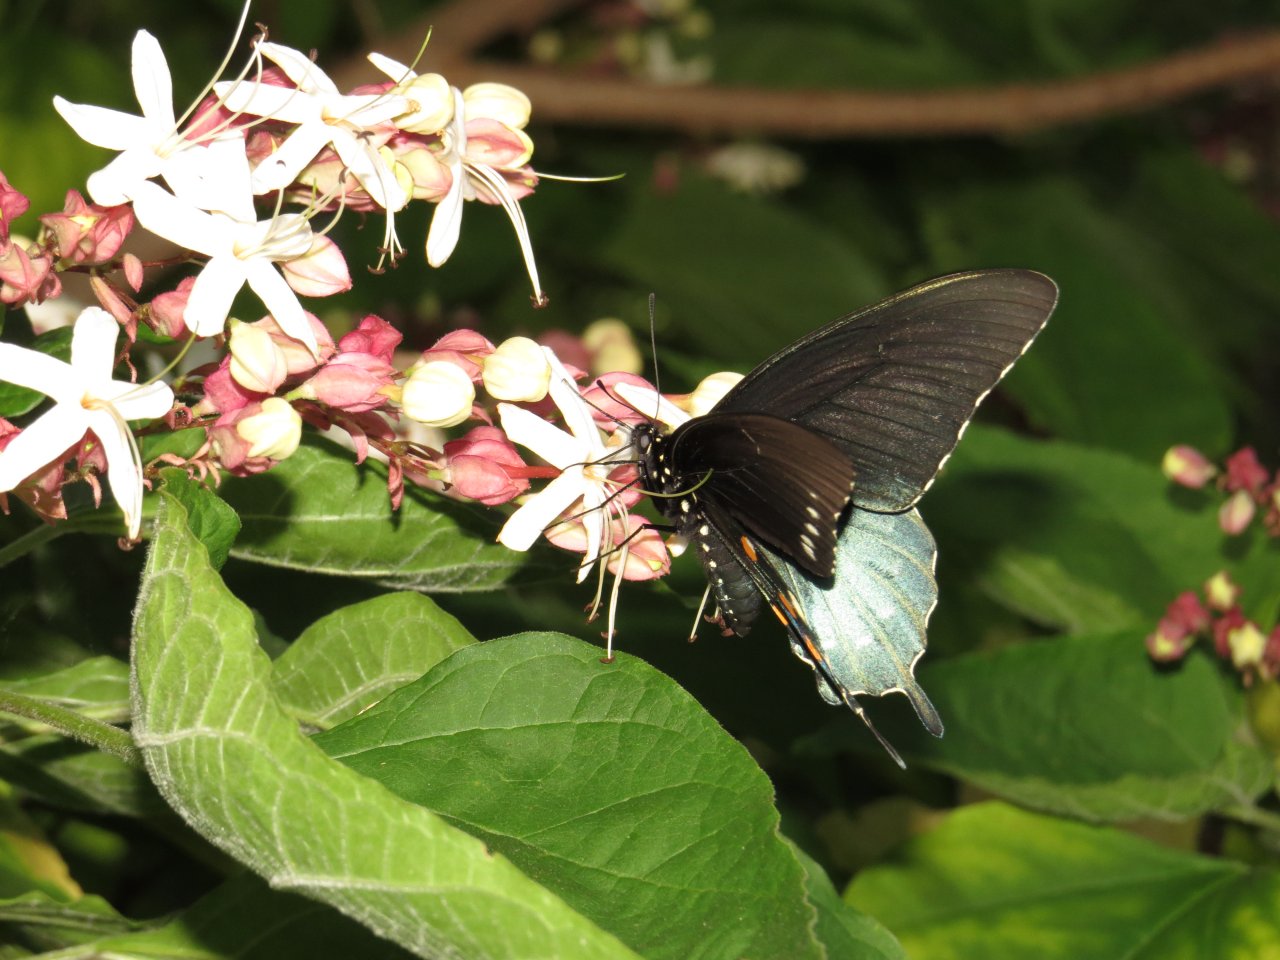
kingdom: Animalia
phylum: Arthropoda
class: Insecta
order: Lepidoptera
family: Papilionidae
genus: Battus
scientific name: Battus philenor
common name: Pipevine Swallowtail
